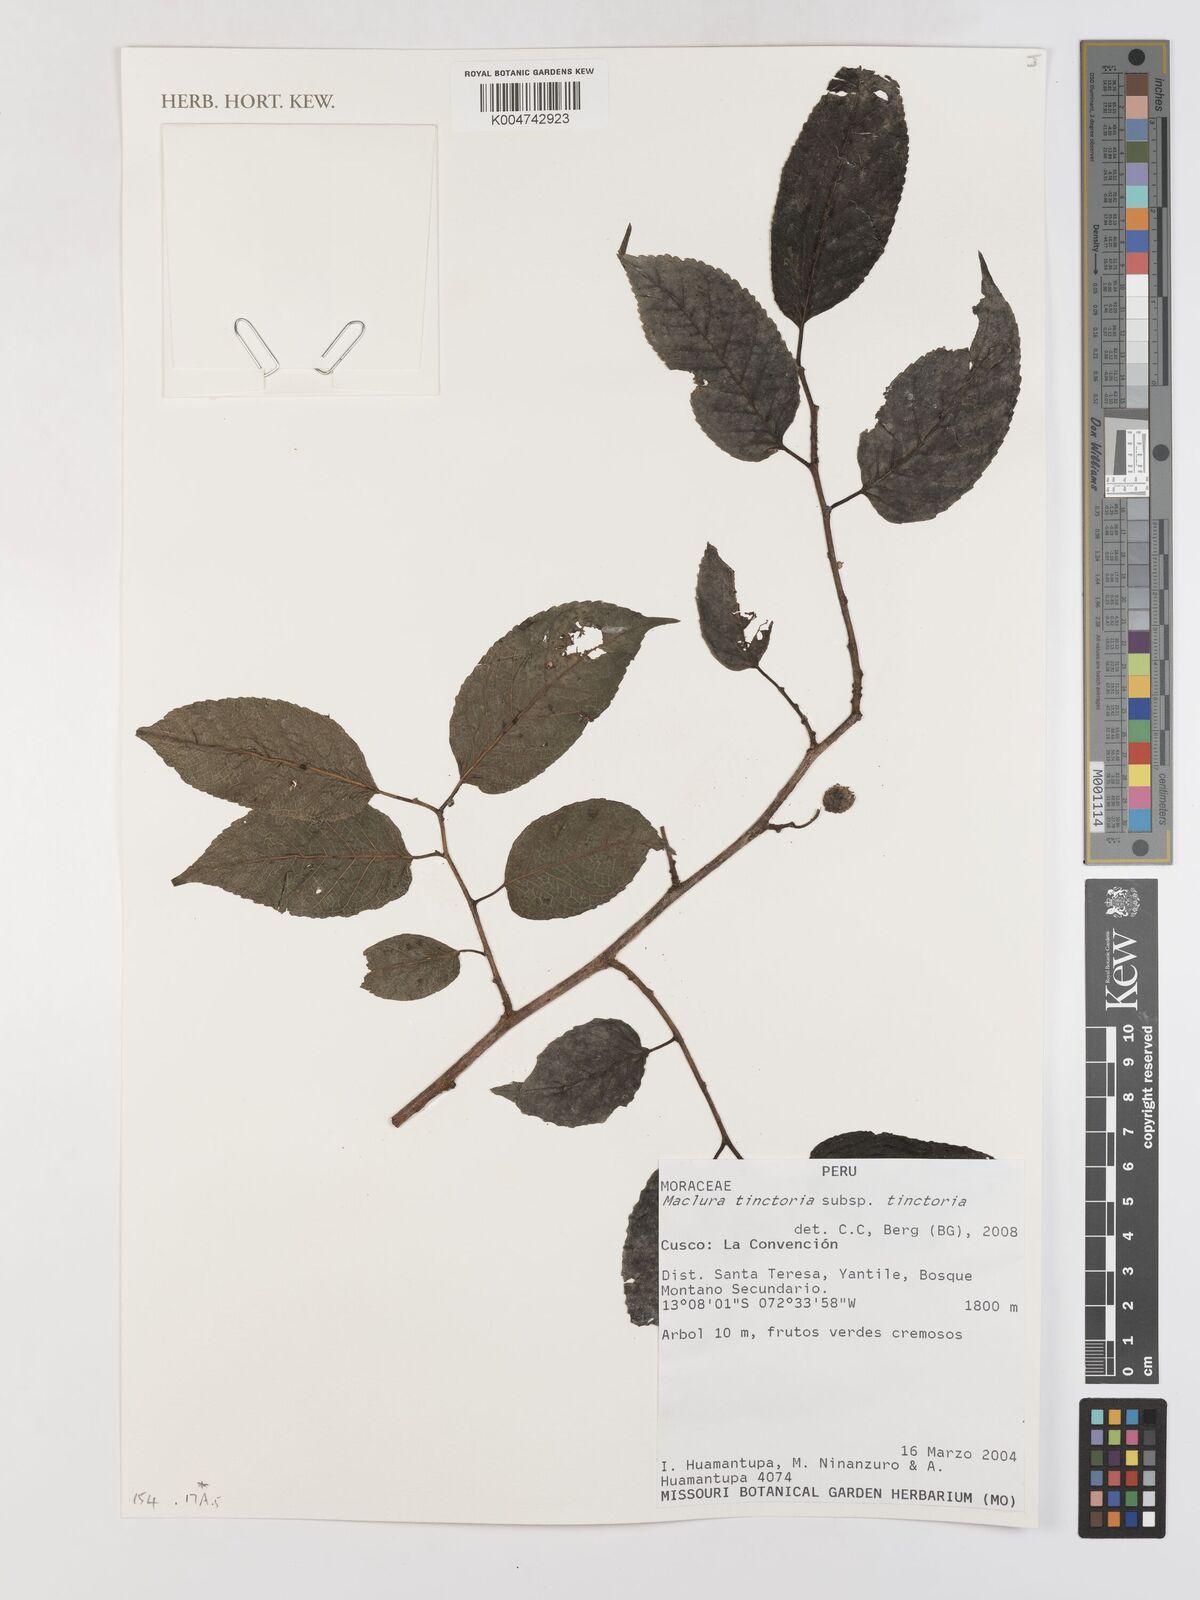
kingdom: Plantae
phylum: Tracheophyta
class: Magnoliopsida
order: Rosales
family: Moraceae
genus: Maclura
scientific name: Maclura tinctoria
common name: Old fustic
